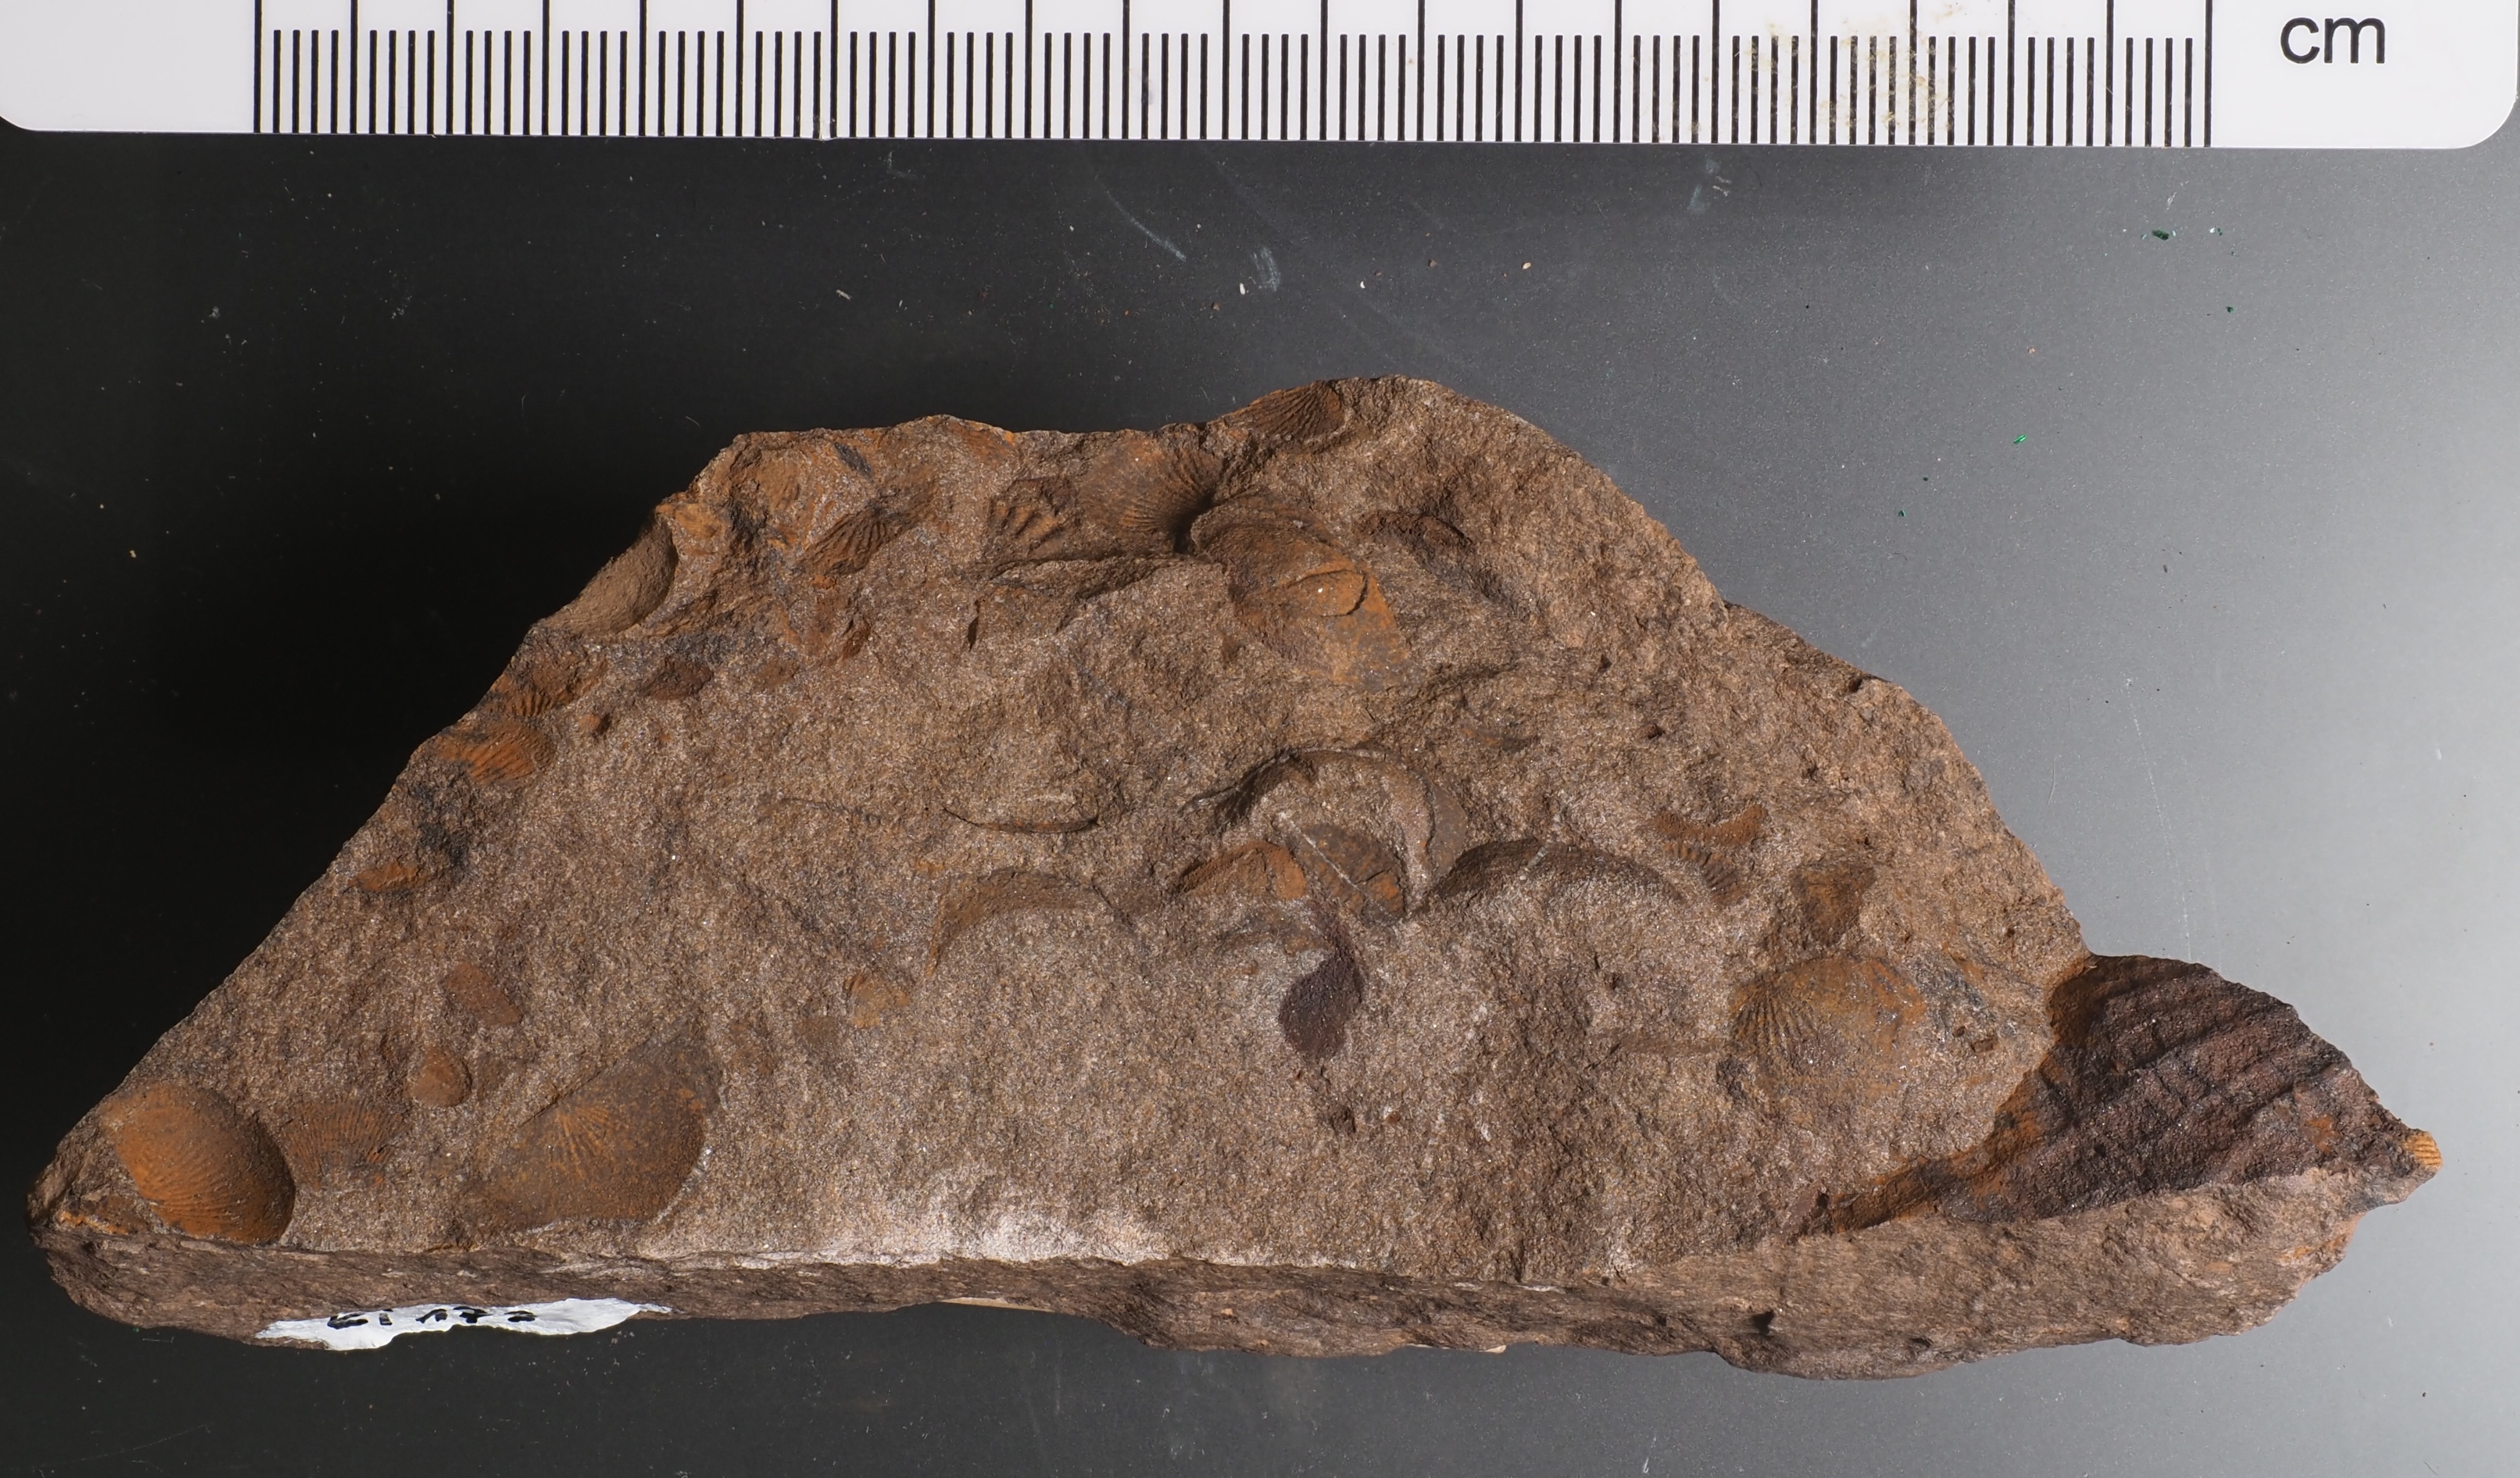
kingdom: Animalia
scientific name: Animalia
